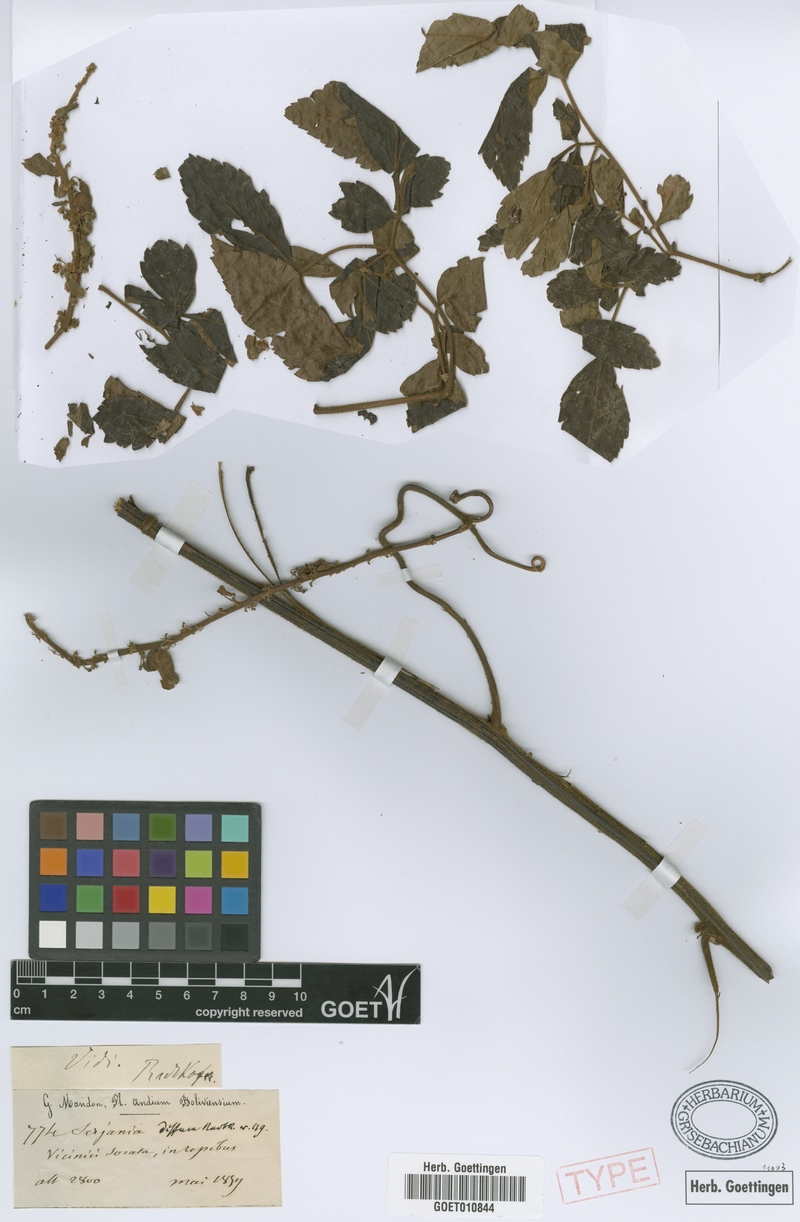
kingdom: Plantae
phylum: Tracheophyta
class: Magnoliopsida
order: Sapindales
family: Sapindaceae
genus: Serjania
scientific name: Serjania diffusa
